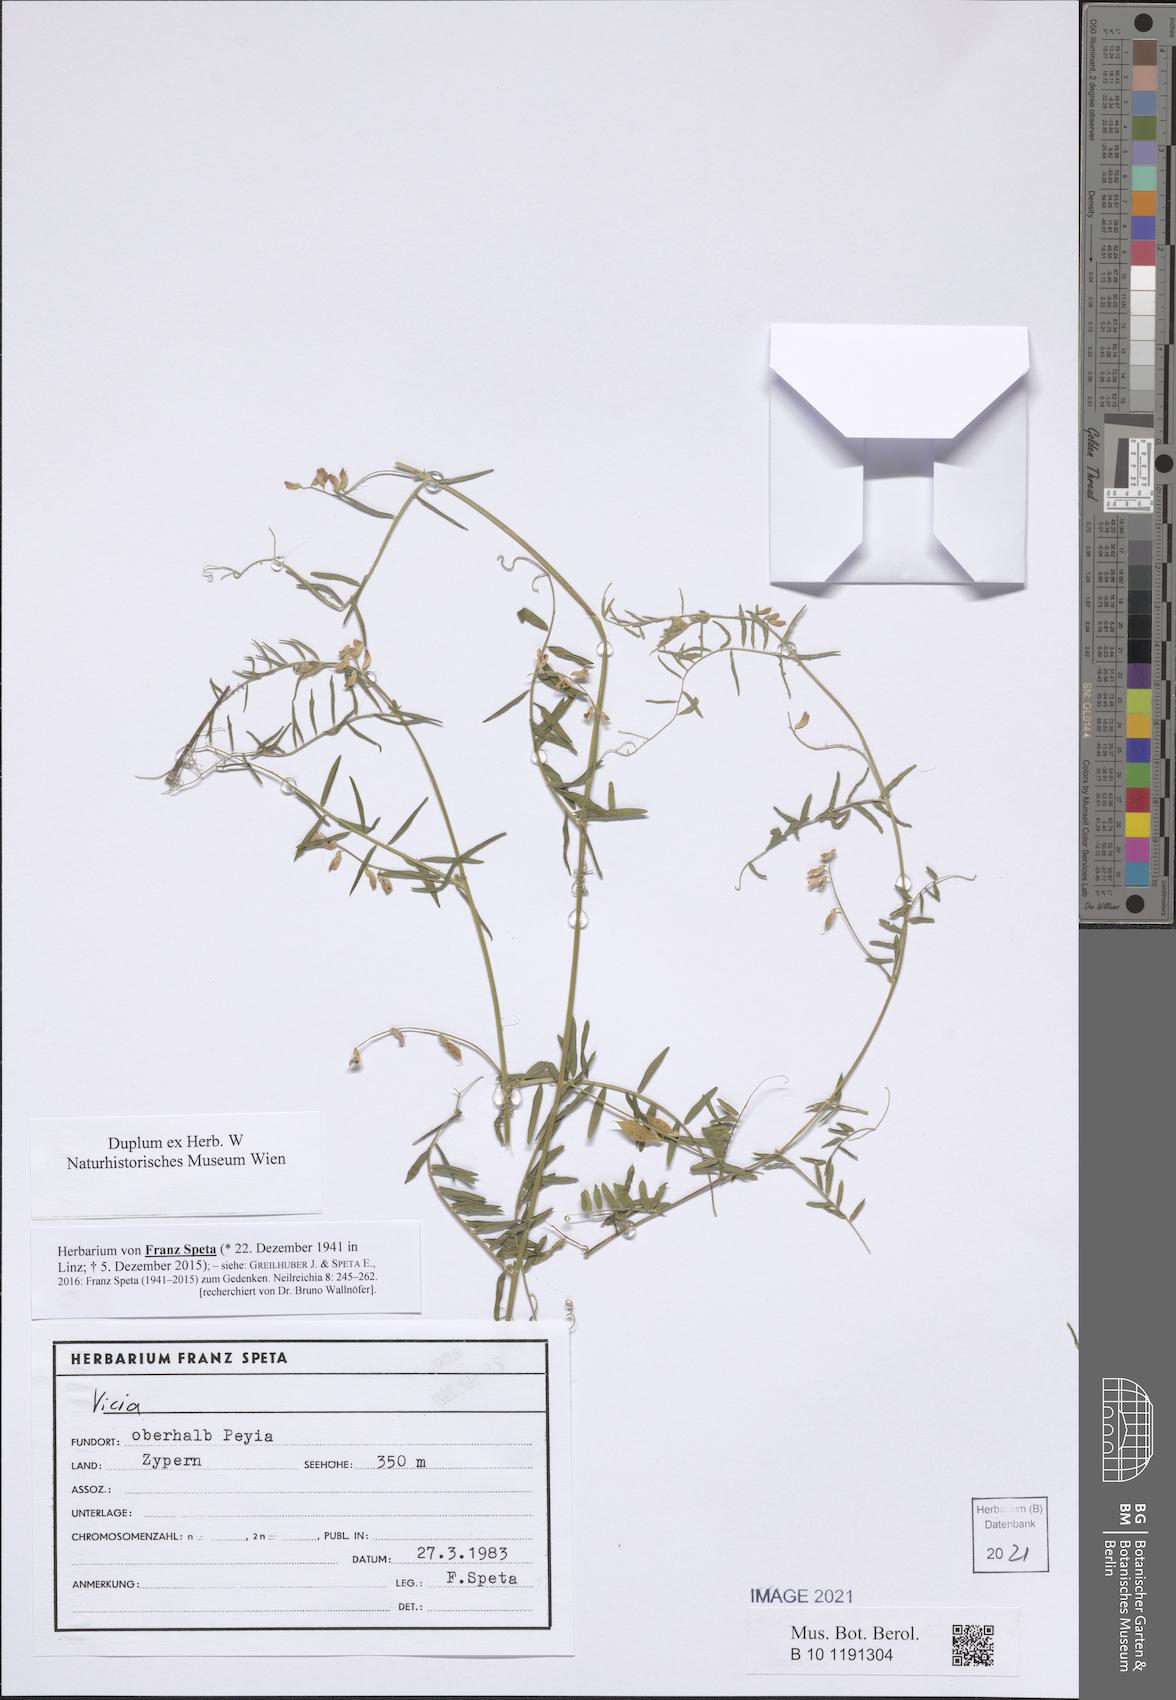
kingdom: Plantae
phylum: Tracheophyta
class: Magnoliopsida
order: Fabales
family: Fabaceae
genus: Vicia
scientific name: Vicia
